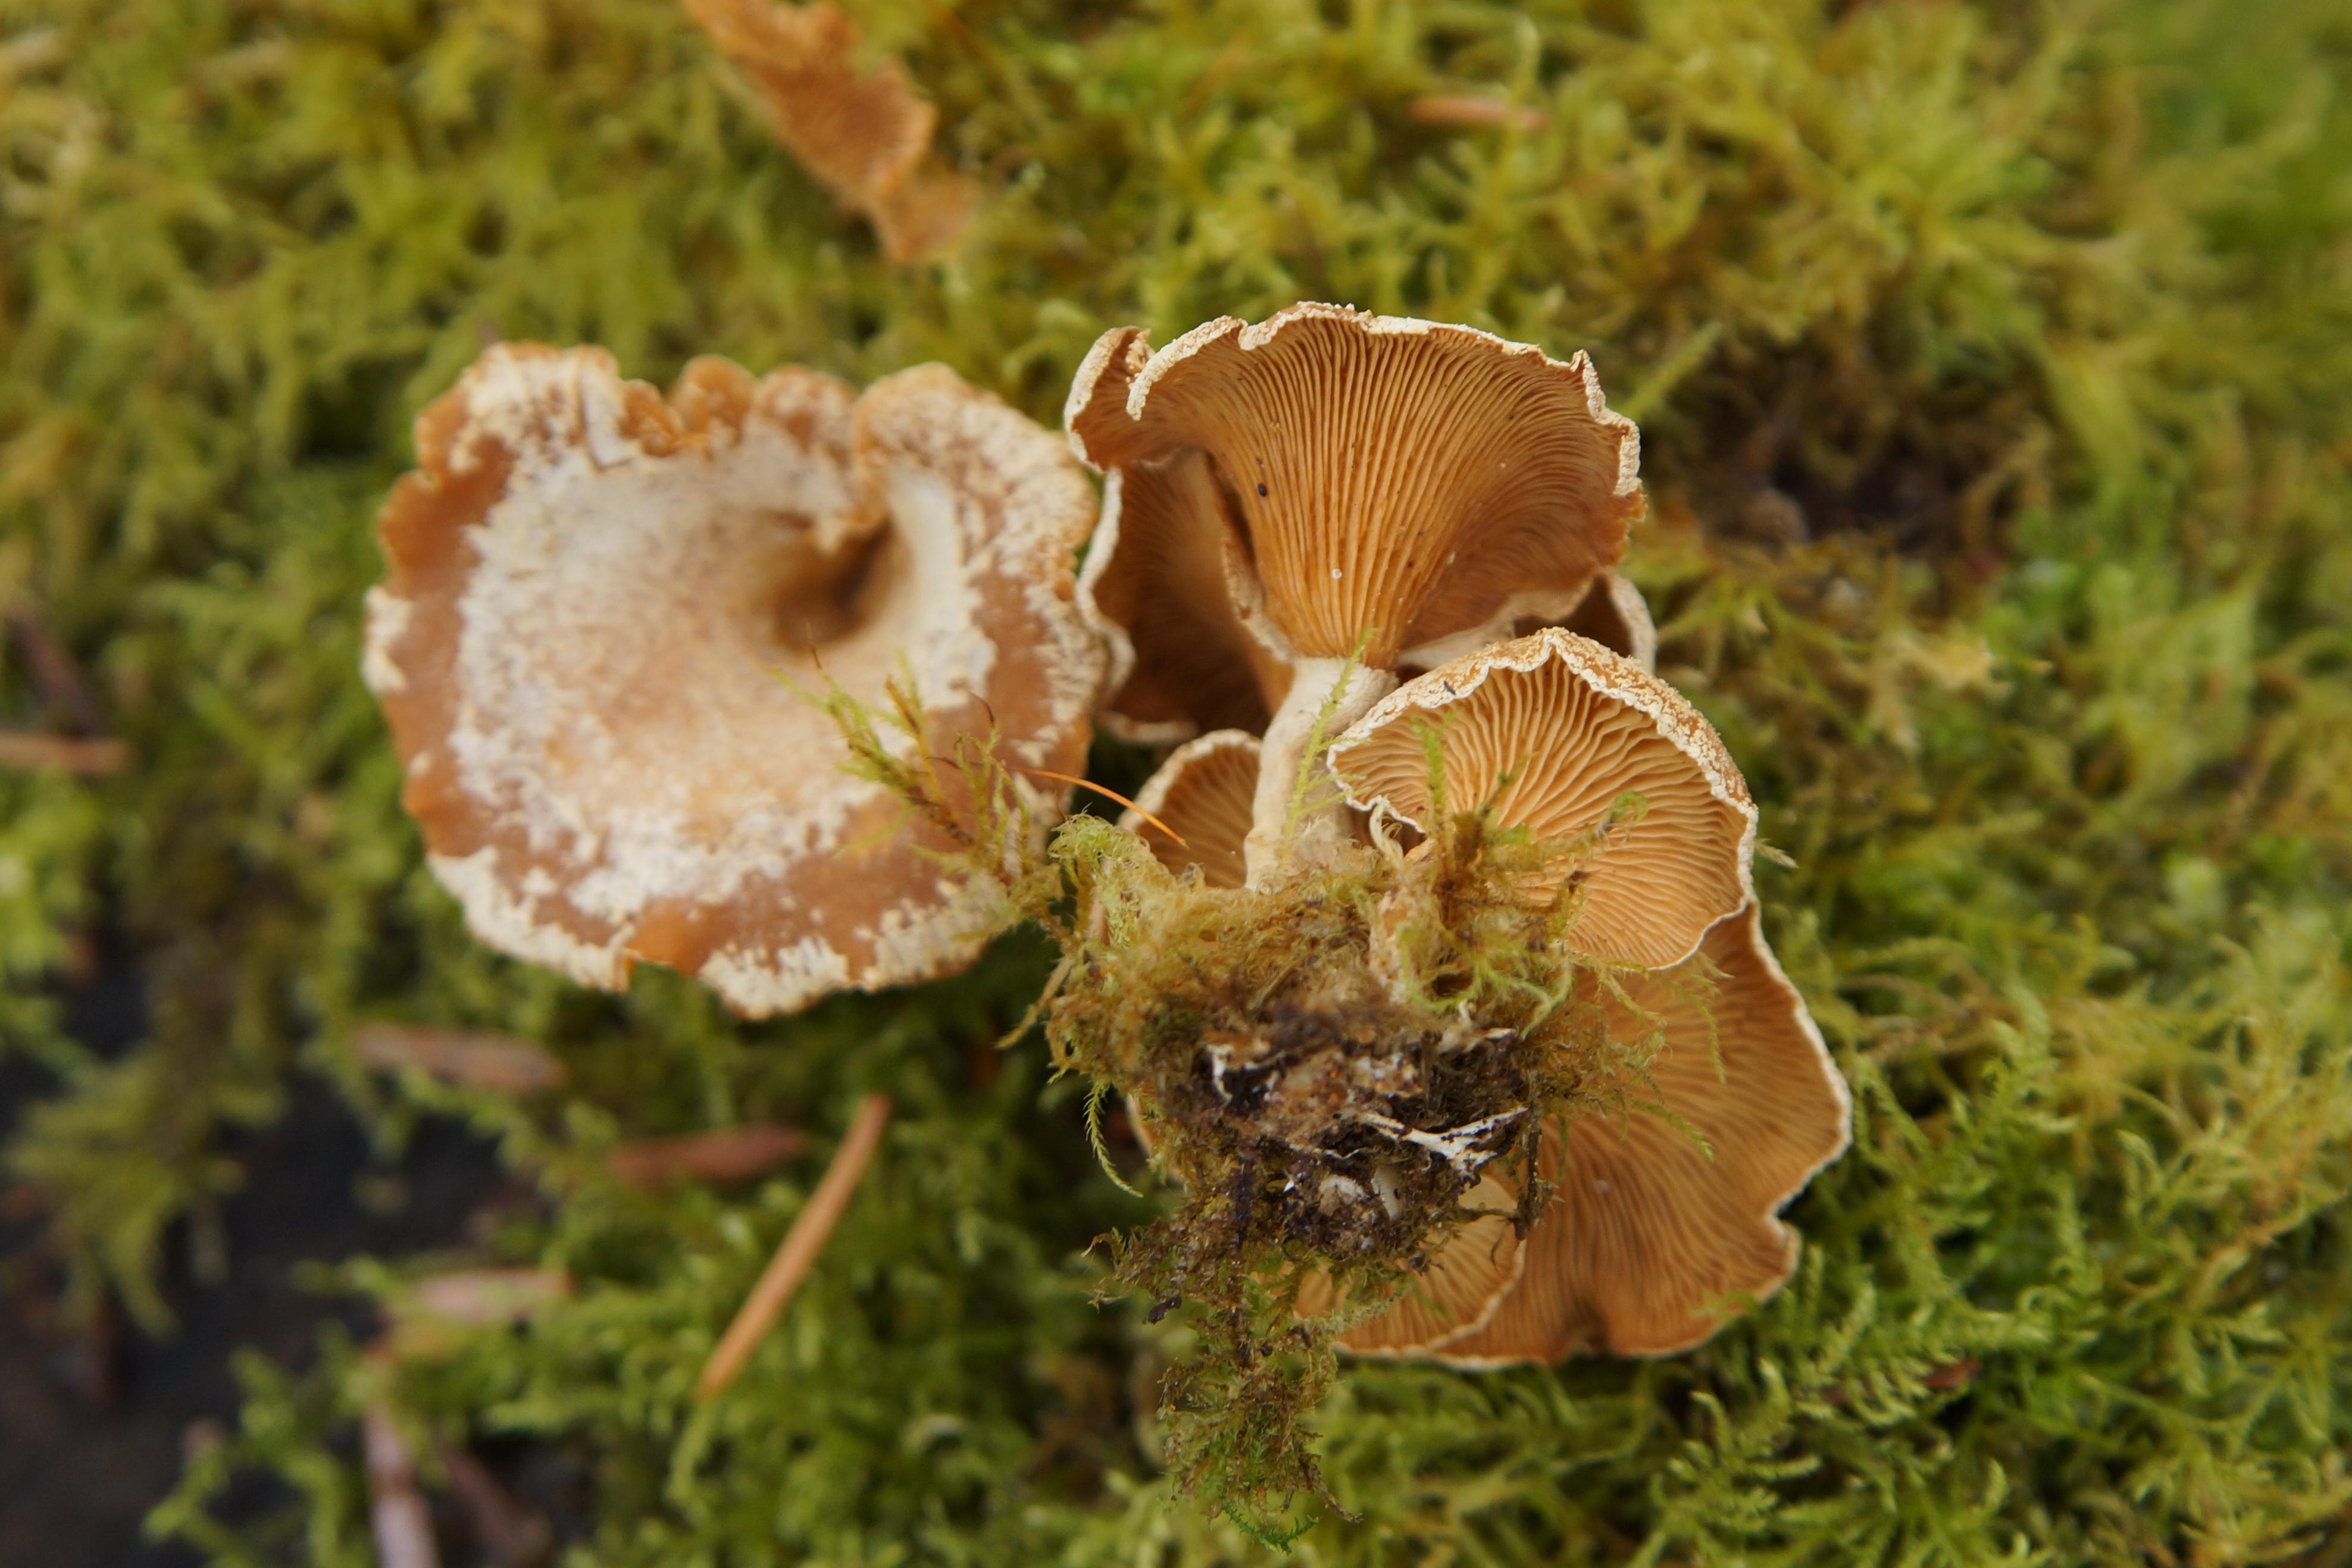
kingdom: Fungi
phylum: Basidiomycota
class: Agaricomycetes
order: Agaricales
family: Mycenaceae
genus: Panellus
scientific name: Panellus stipticus
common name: kliddet epaulethat
